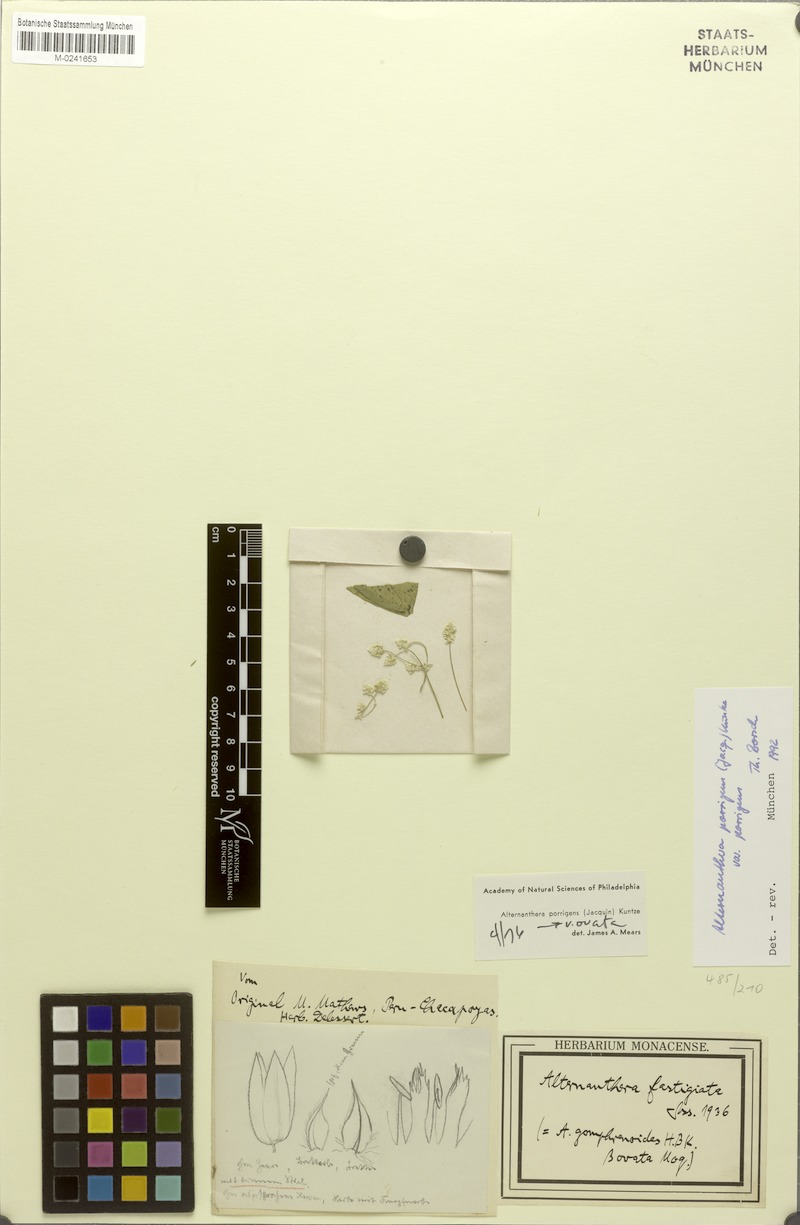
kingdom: Plantae
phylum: Tracheophyta
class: Magnoliopsida
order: Caryophyllales
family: Amaranthaceae
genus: Alternanthera
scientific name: Alternanthera fastigiata
